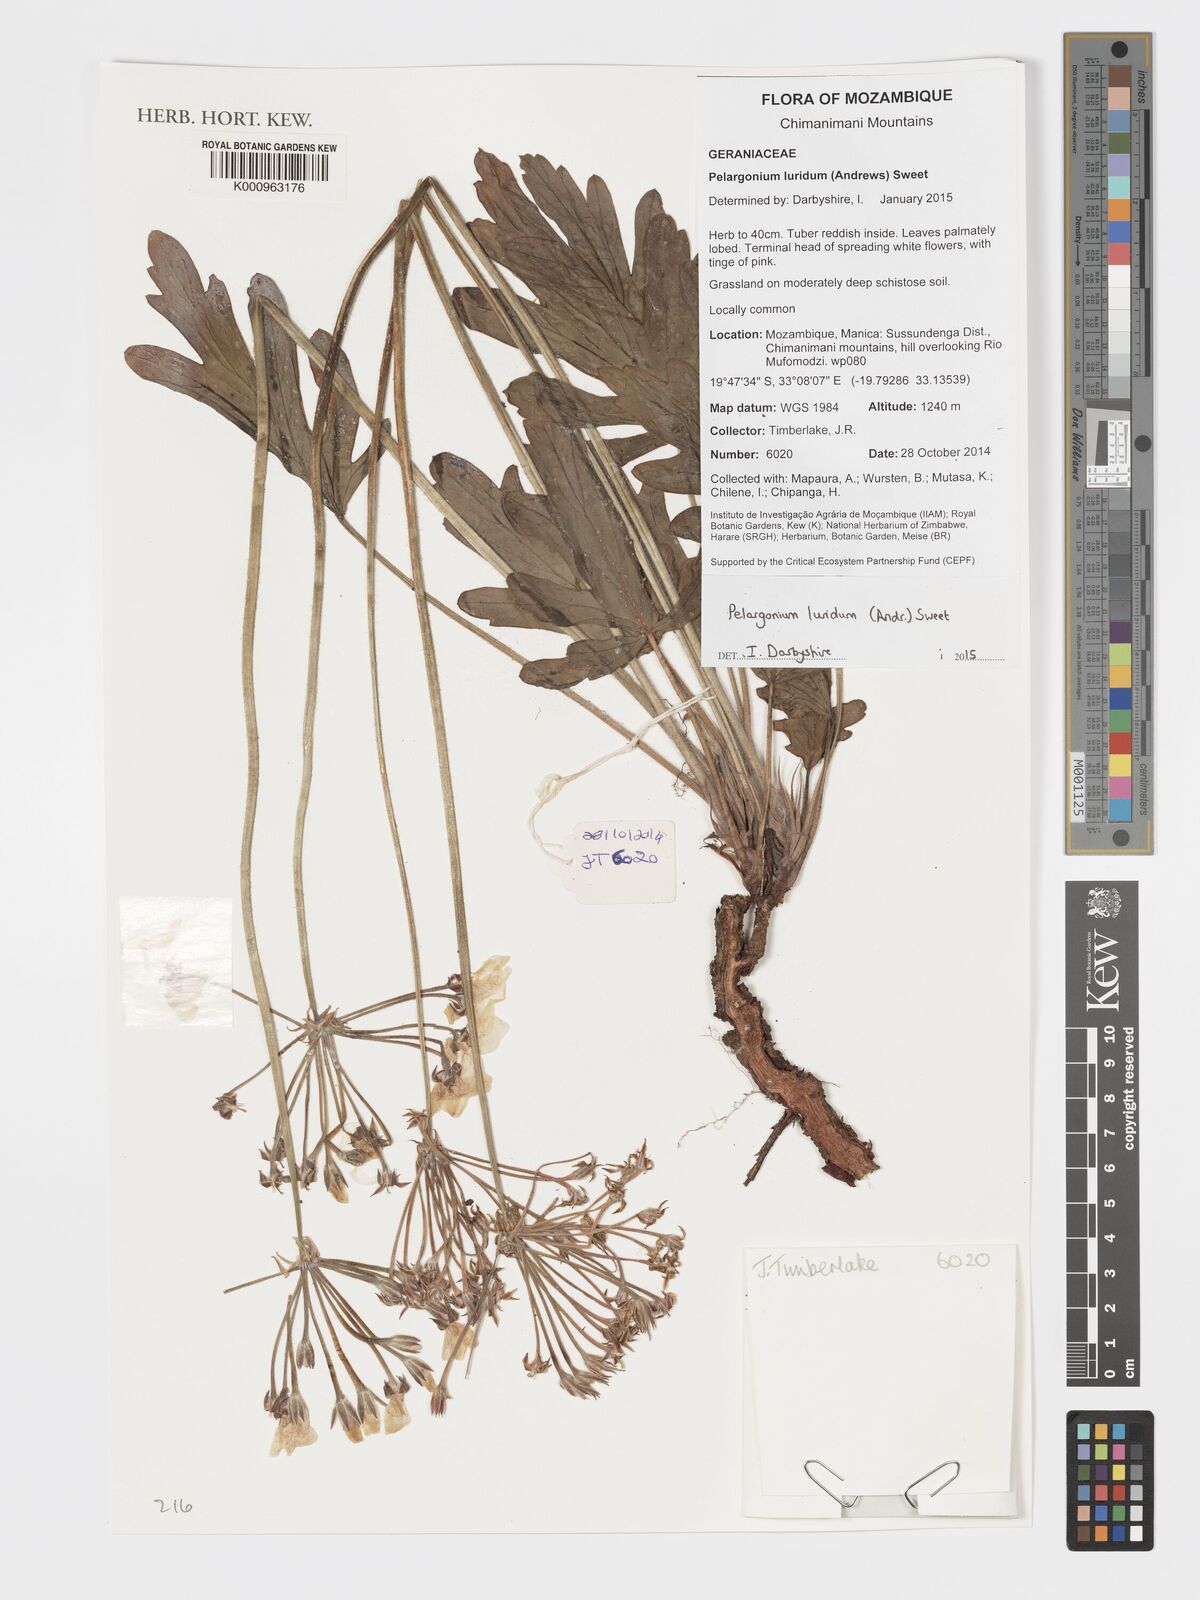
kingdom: Plantae
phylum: Tracheophyta
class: Magnoliopsida
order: Geraniales
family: Geraniaceae
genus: Pelargonium
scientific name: Pelargonium luridum
